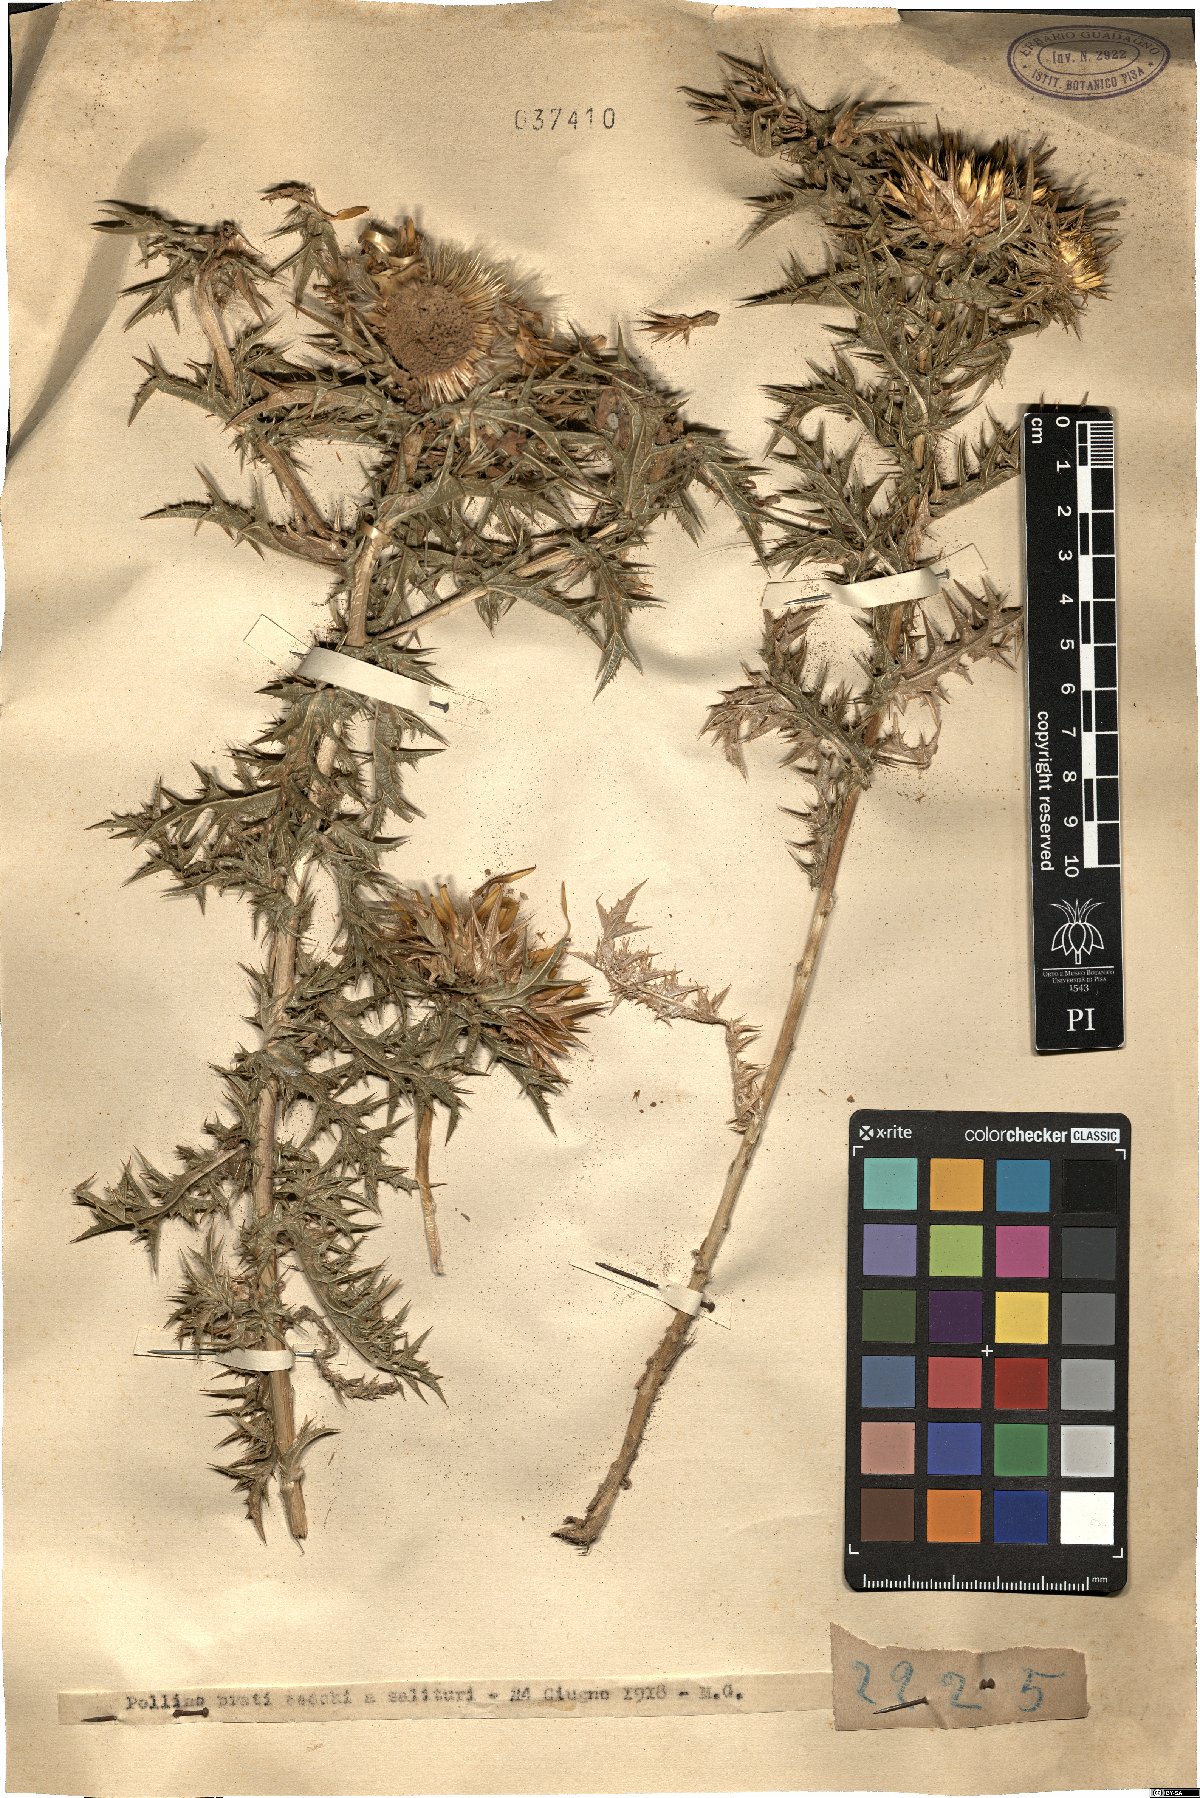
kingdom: Plantae
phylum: Tracheophyta
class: Magnoliopsida
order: Asterales
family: Asteraceae
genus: Carlina
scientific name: Carlina
